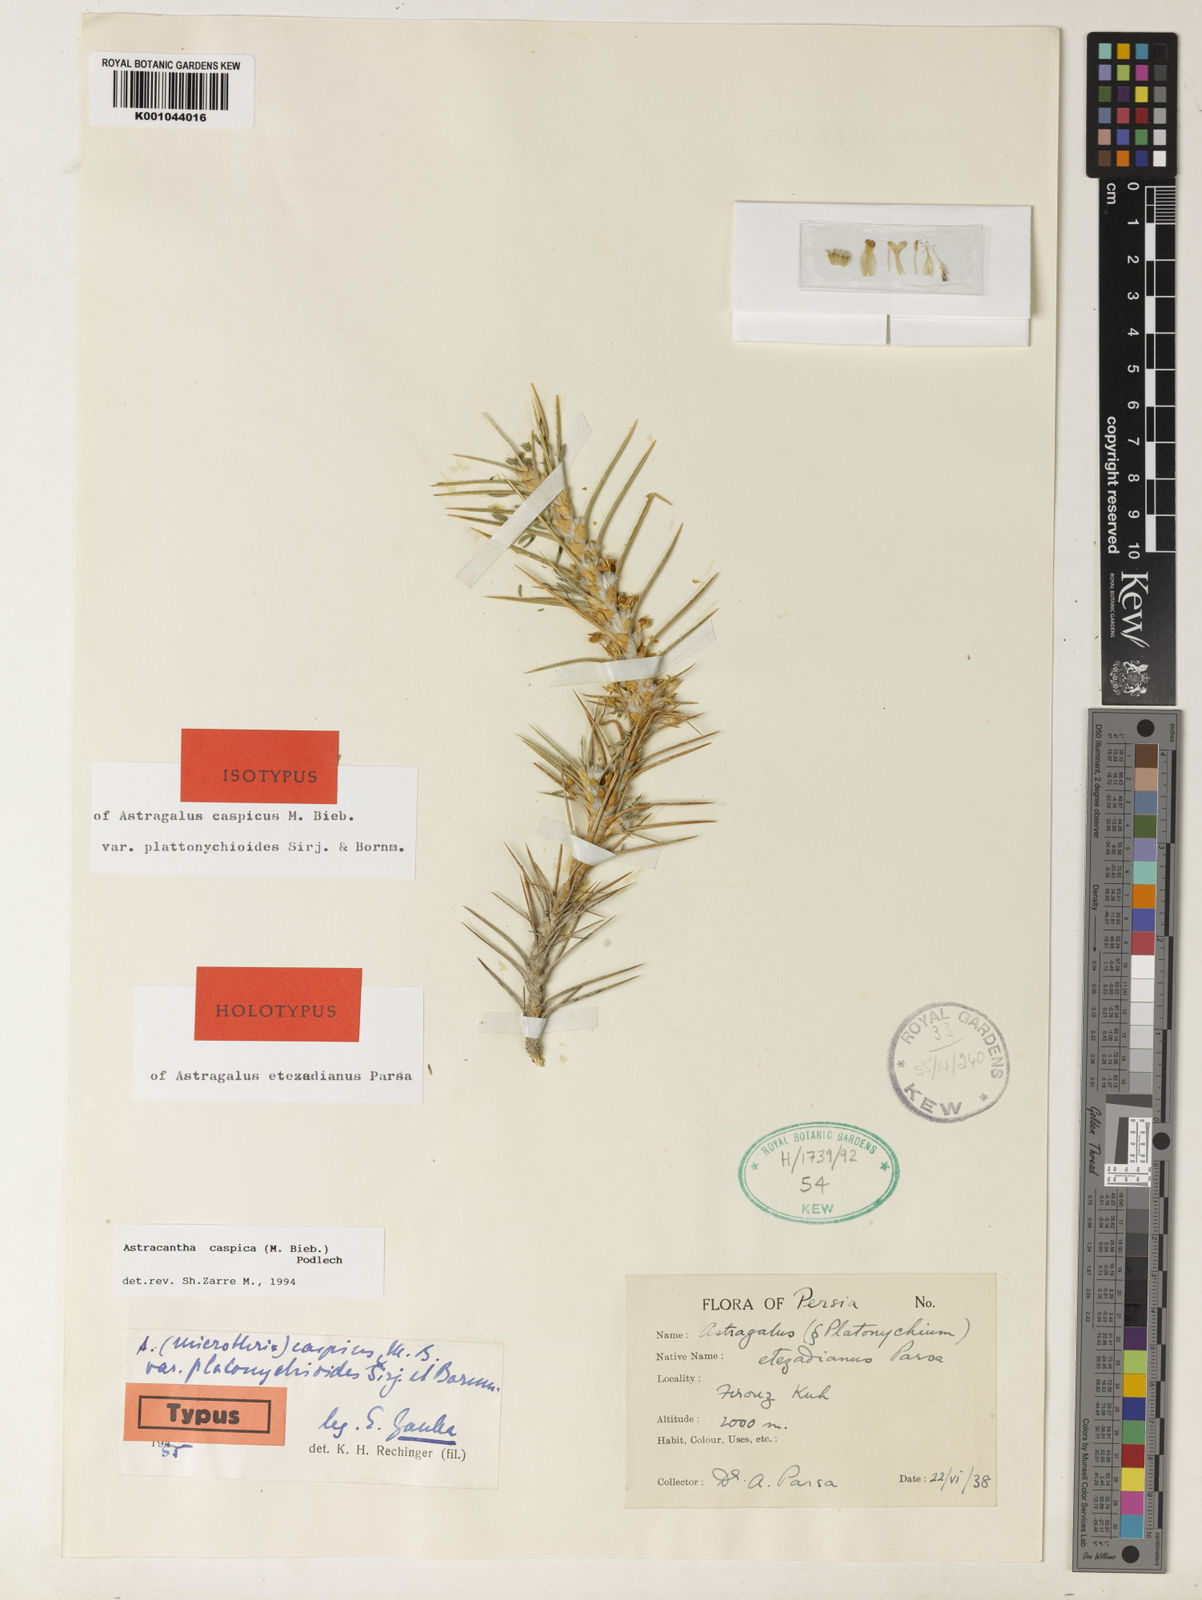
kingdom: Plantae
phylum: Tracheophyta
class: Magnoliopsida
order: Fabales
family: Fabaceae
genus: Astragalus
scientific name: Astragalus caspicus
